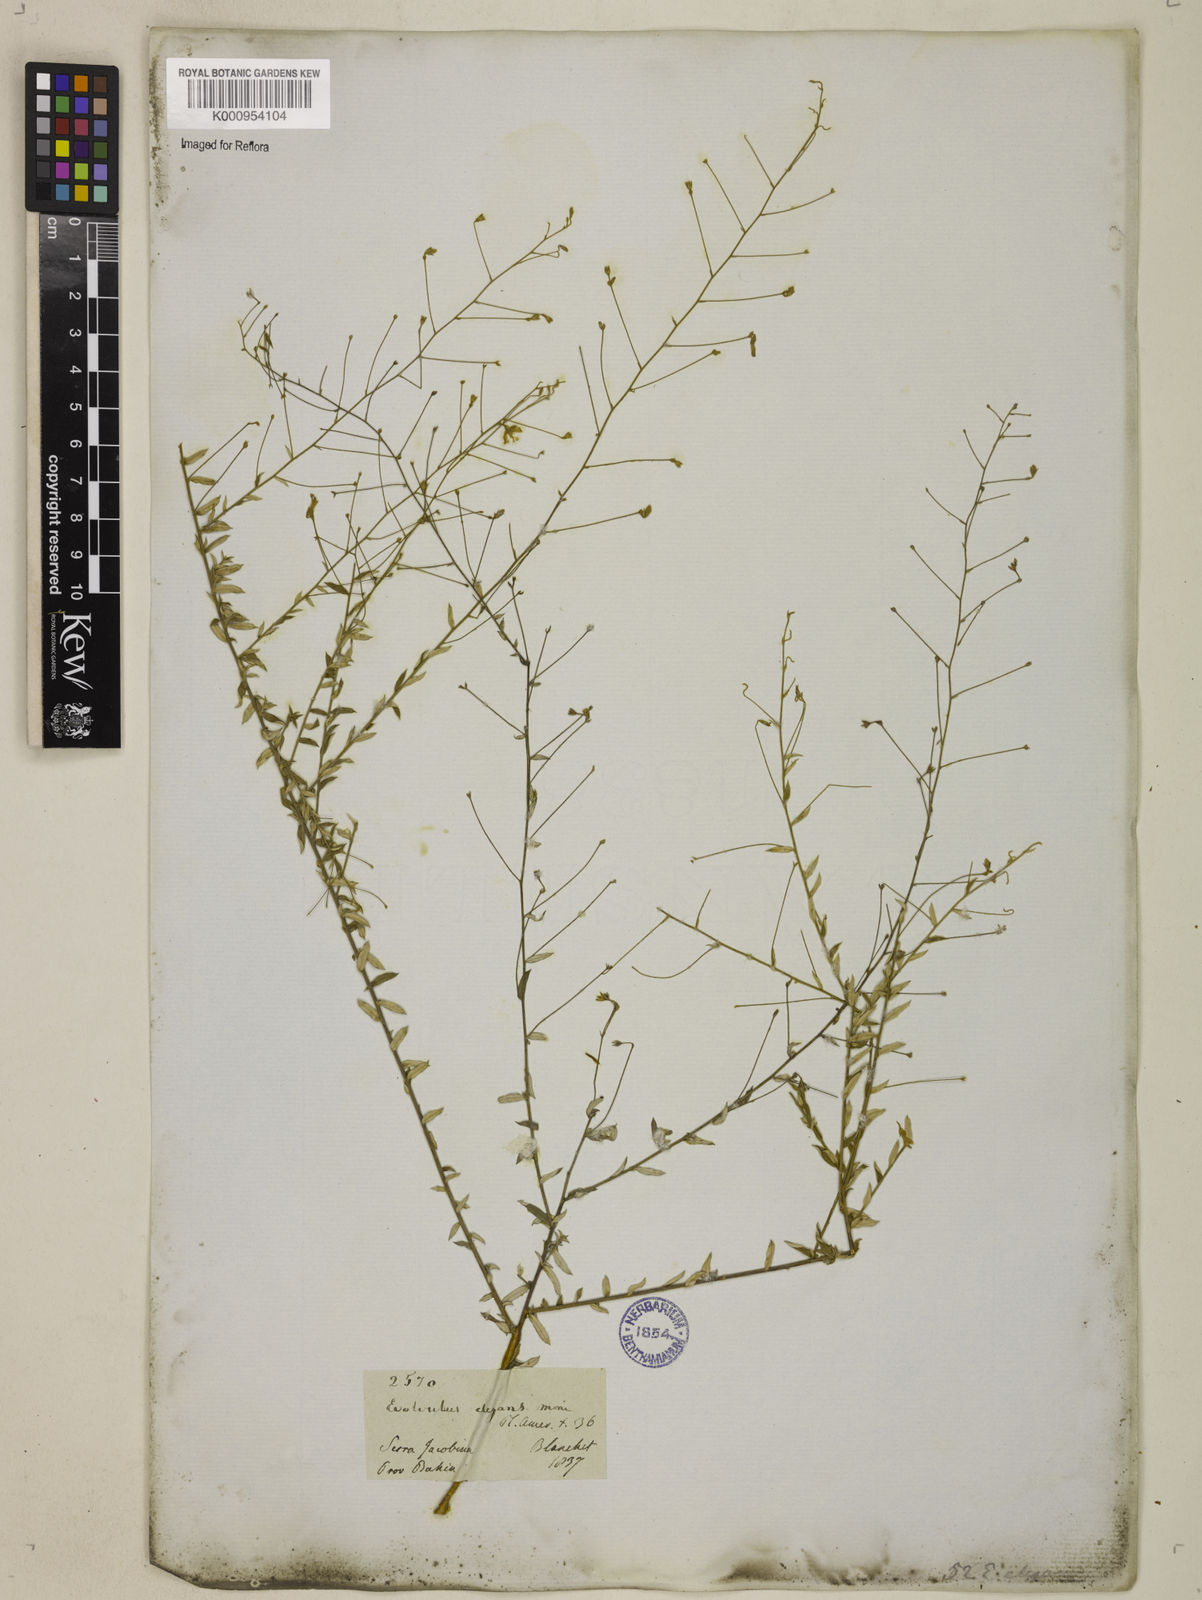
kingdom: Plantae
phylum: Tracheophyta
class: Magnoliopsida
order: Solanales
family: Convolvulaceae
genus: Evolvulus
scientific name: Evolvulus elegans
